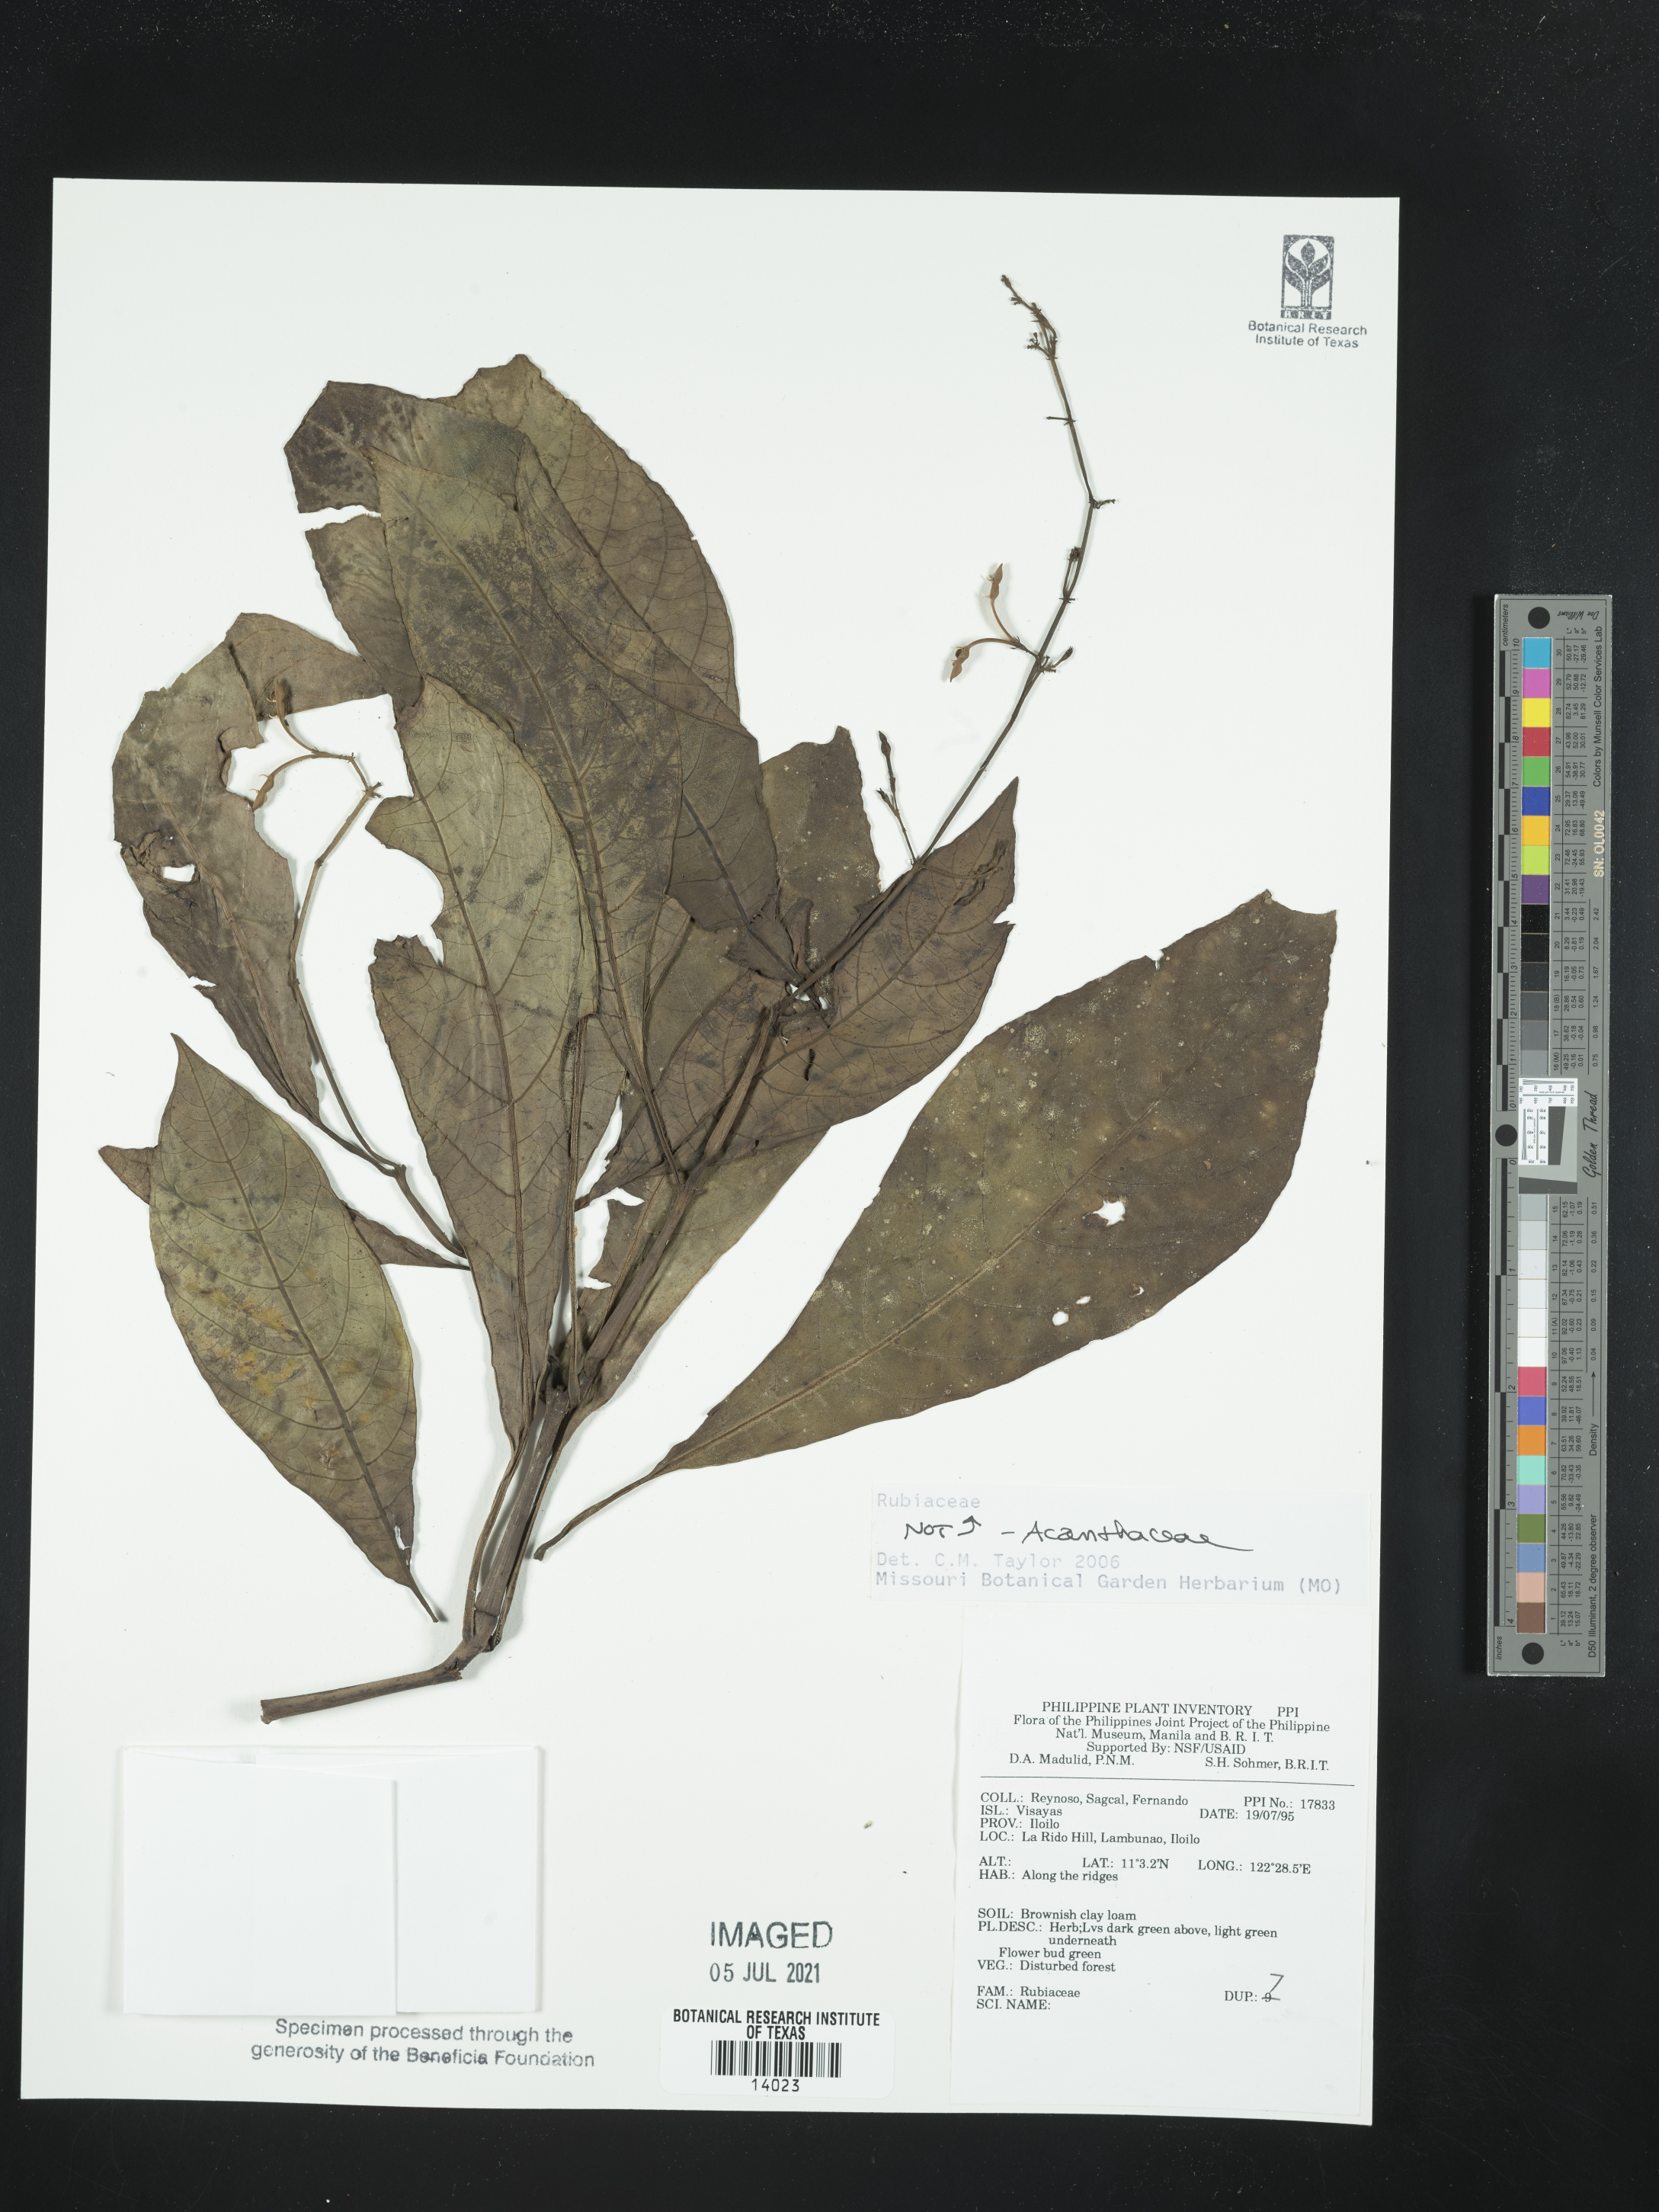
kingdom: Plantae
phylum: Tracheophyta
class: Magnoliopsida
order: Lamiales
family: Acanthaceae
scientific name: Acanthaceae
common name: Acanthaceae
